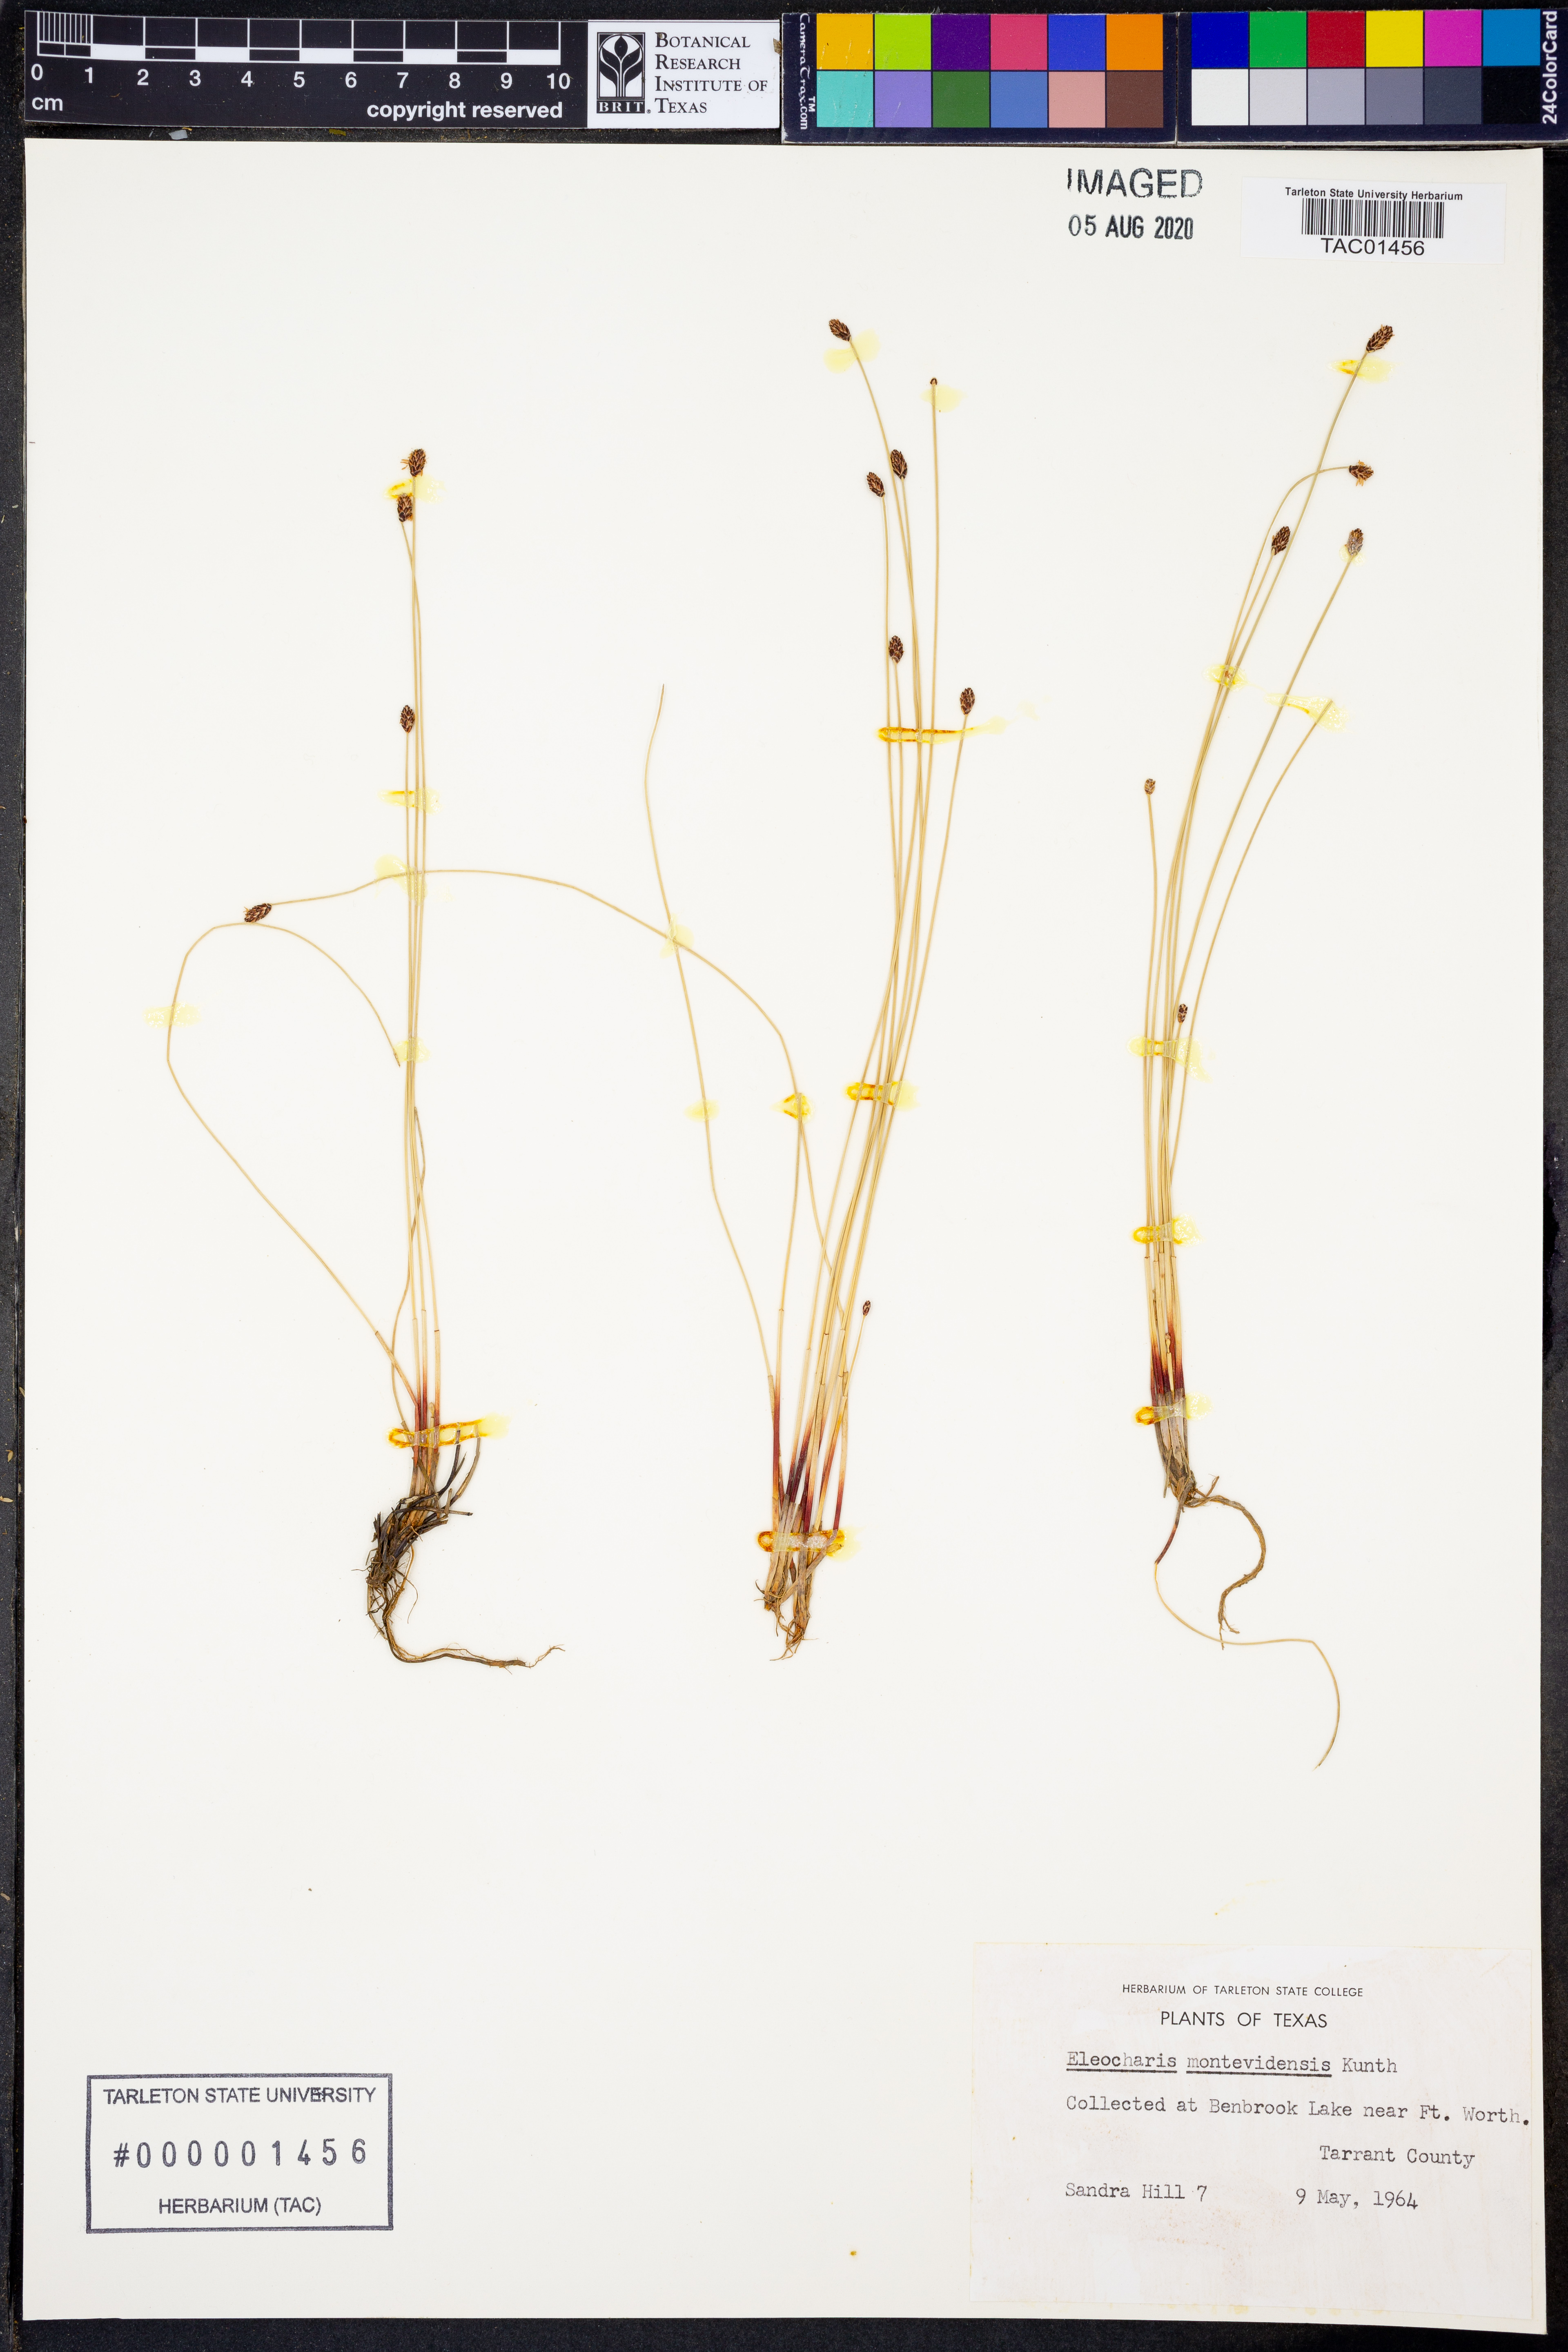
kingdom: Plantae
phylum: Tracheophyta
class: Liliopsida
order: Poales
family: Cyperaceae
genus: Eleocharis
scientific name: Eleocharis montevidensis
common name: Sand spike-rush
